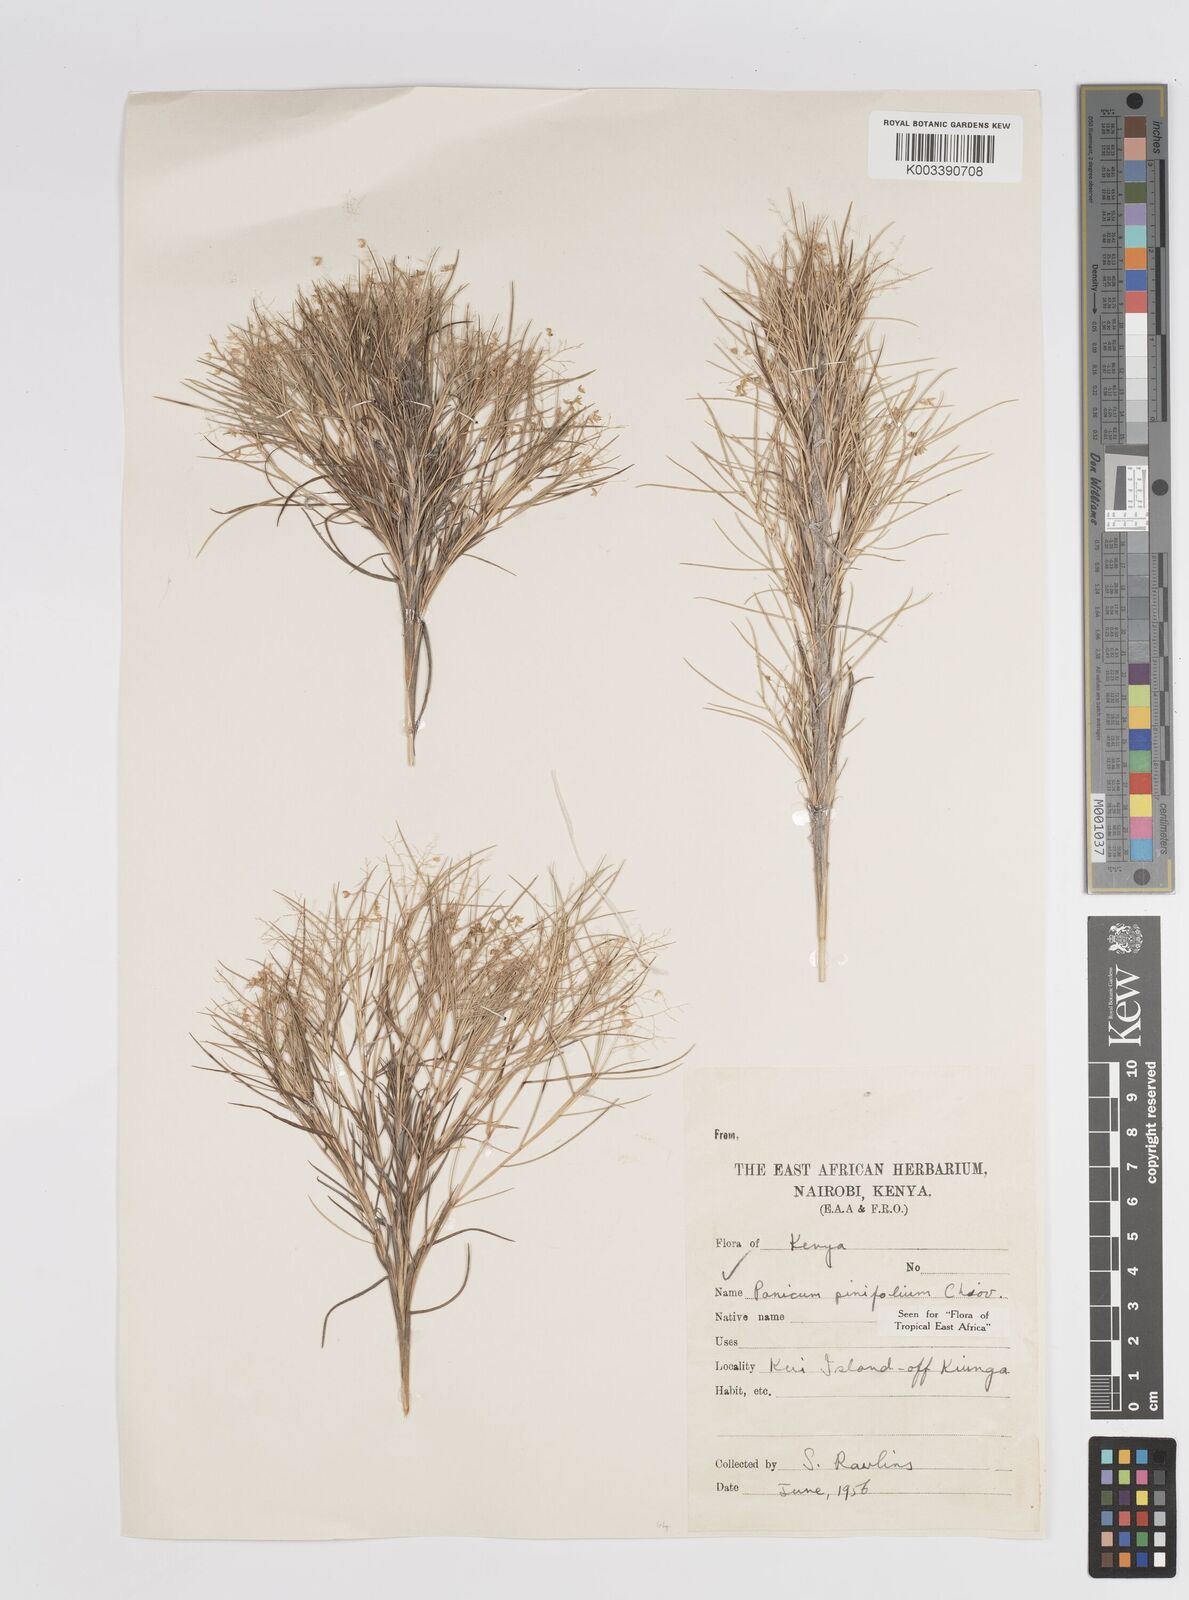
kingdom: Plantae
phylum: Tracheophyta
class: Liliopsida
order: Poales
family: Poaceae
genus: Panicum
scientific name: Panicum pinifolium
